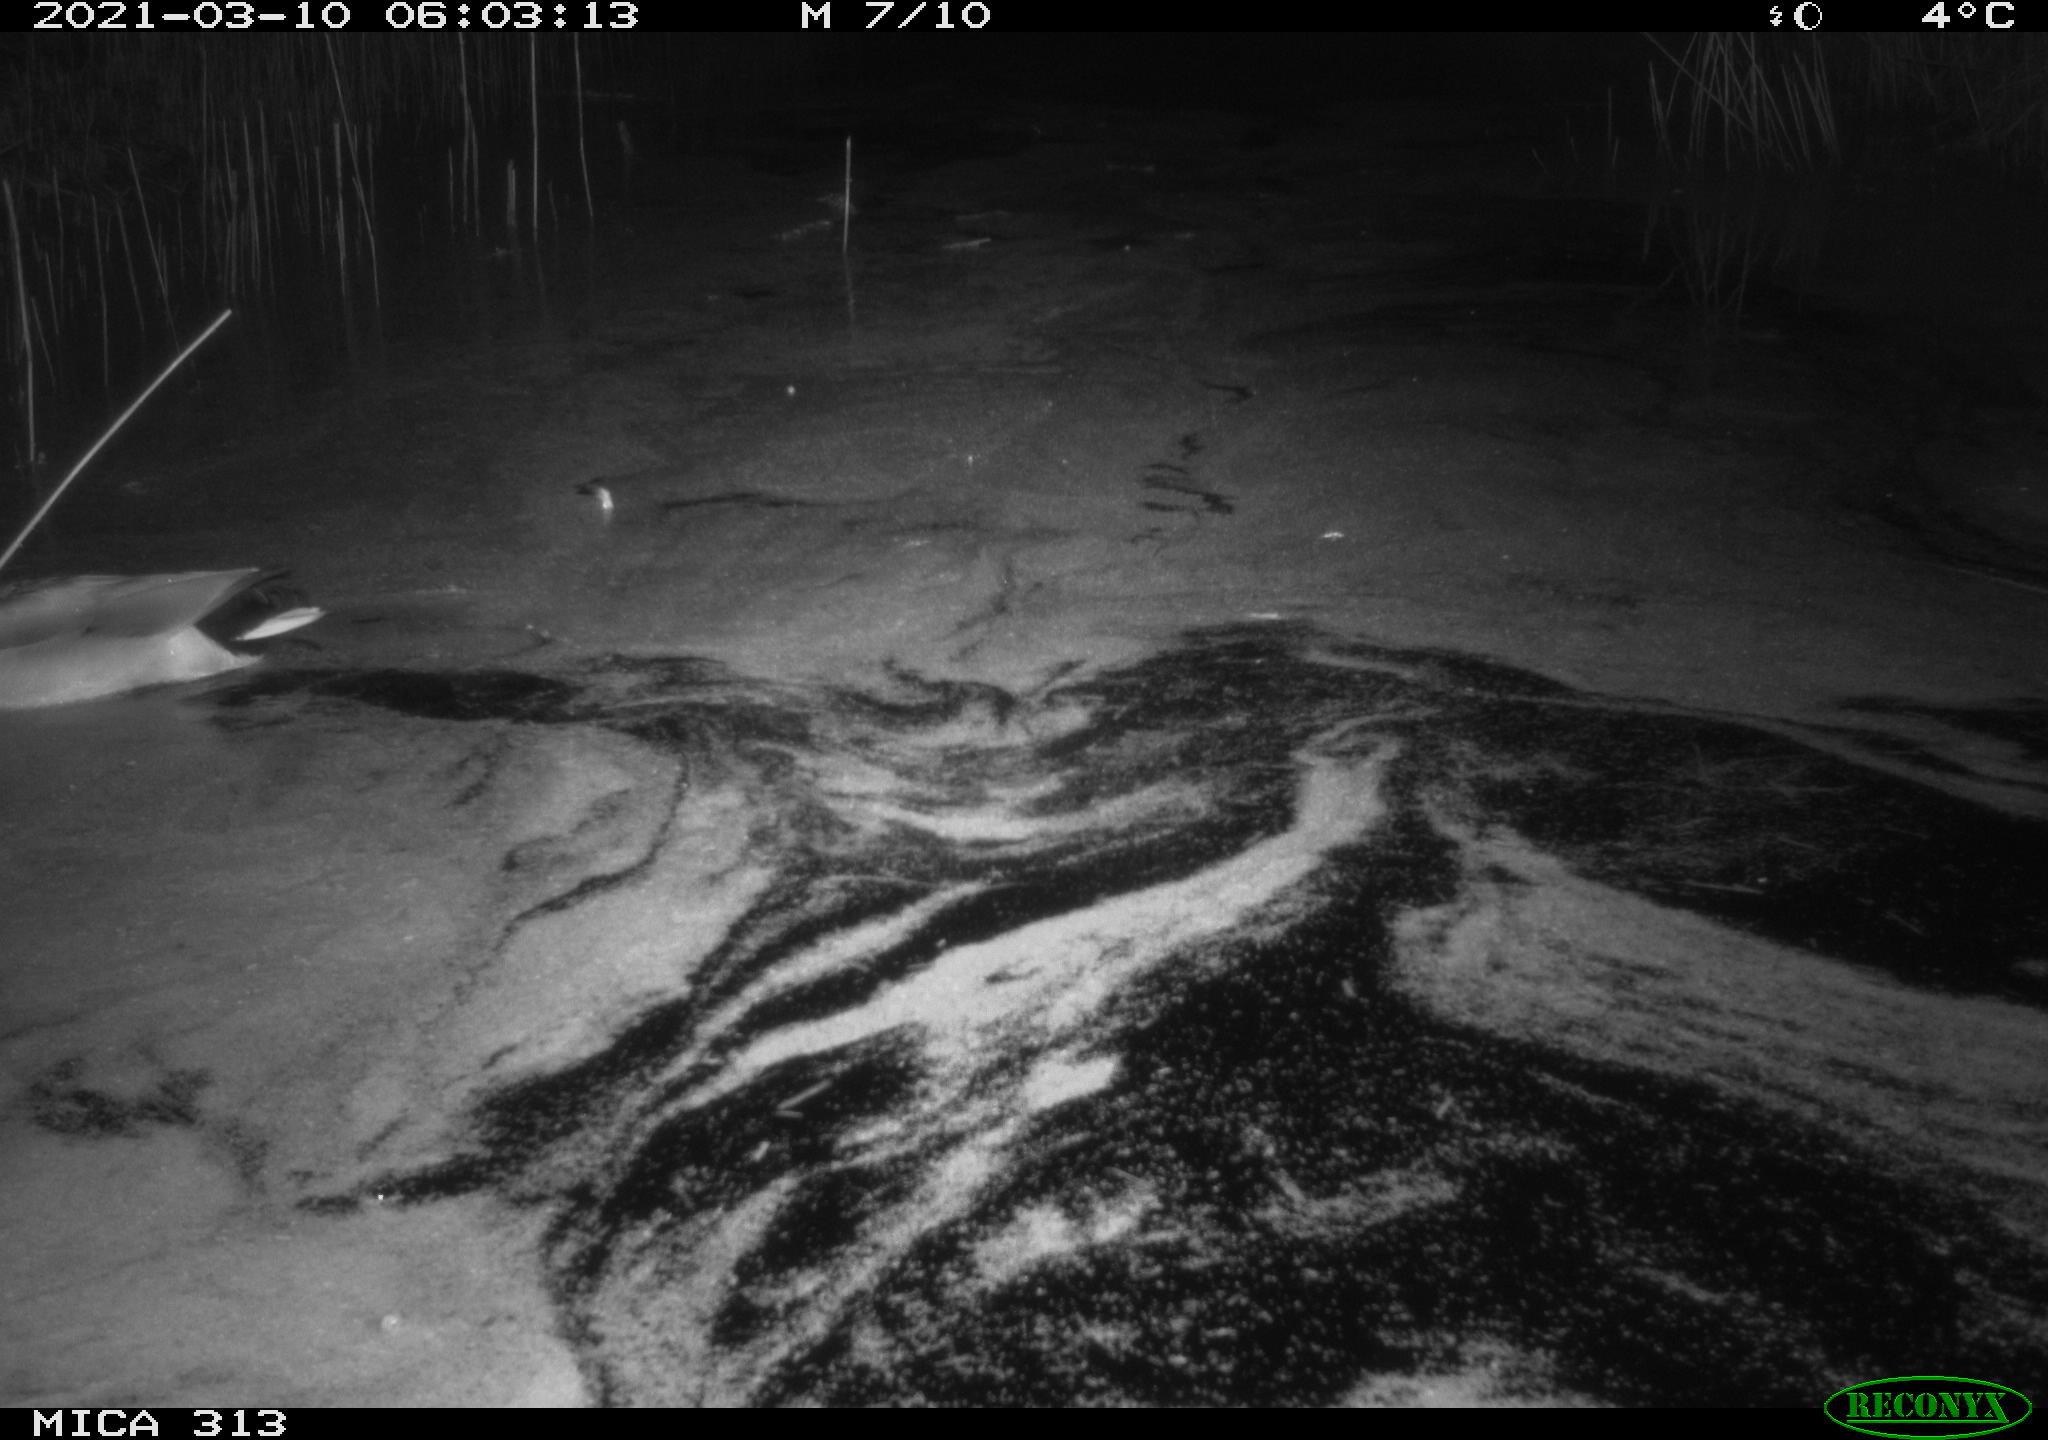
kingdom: Animalia
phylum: Chordata
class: Aves
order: Anseriformes
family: Anatidae
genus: Anas
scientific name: Anas platyrhynchos
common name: Mallard
